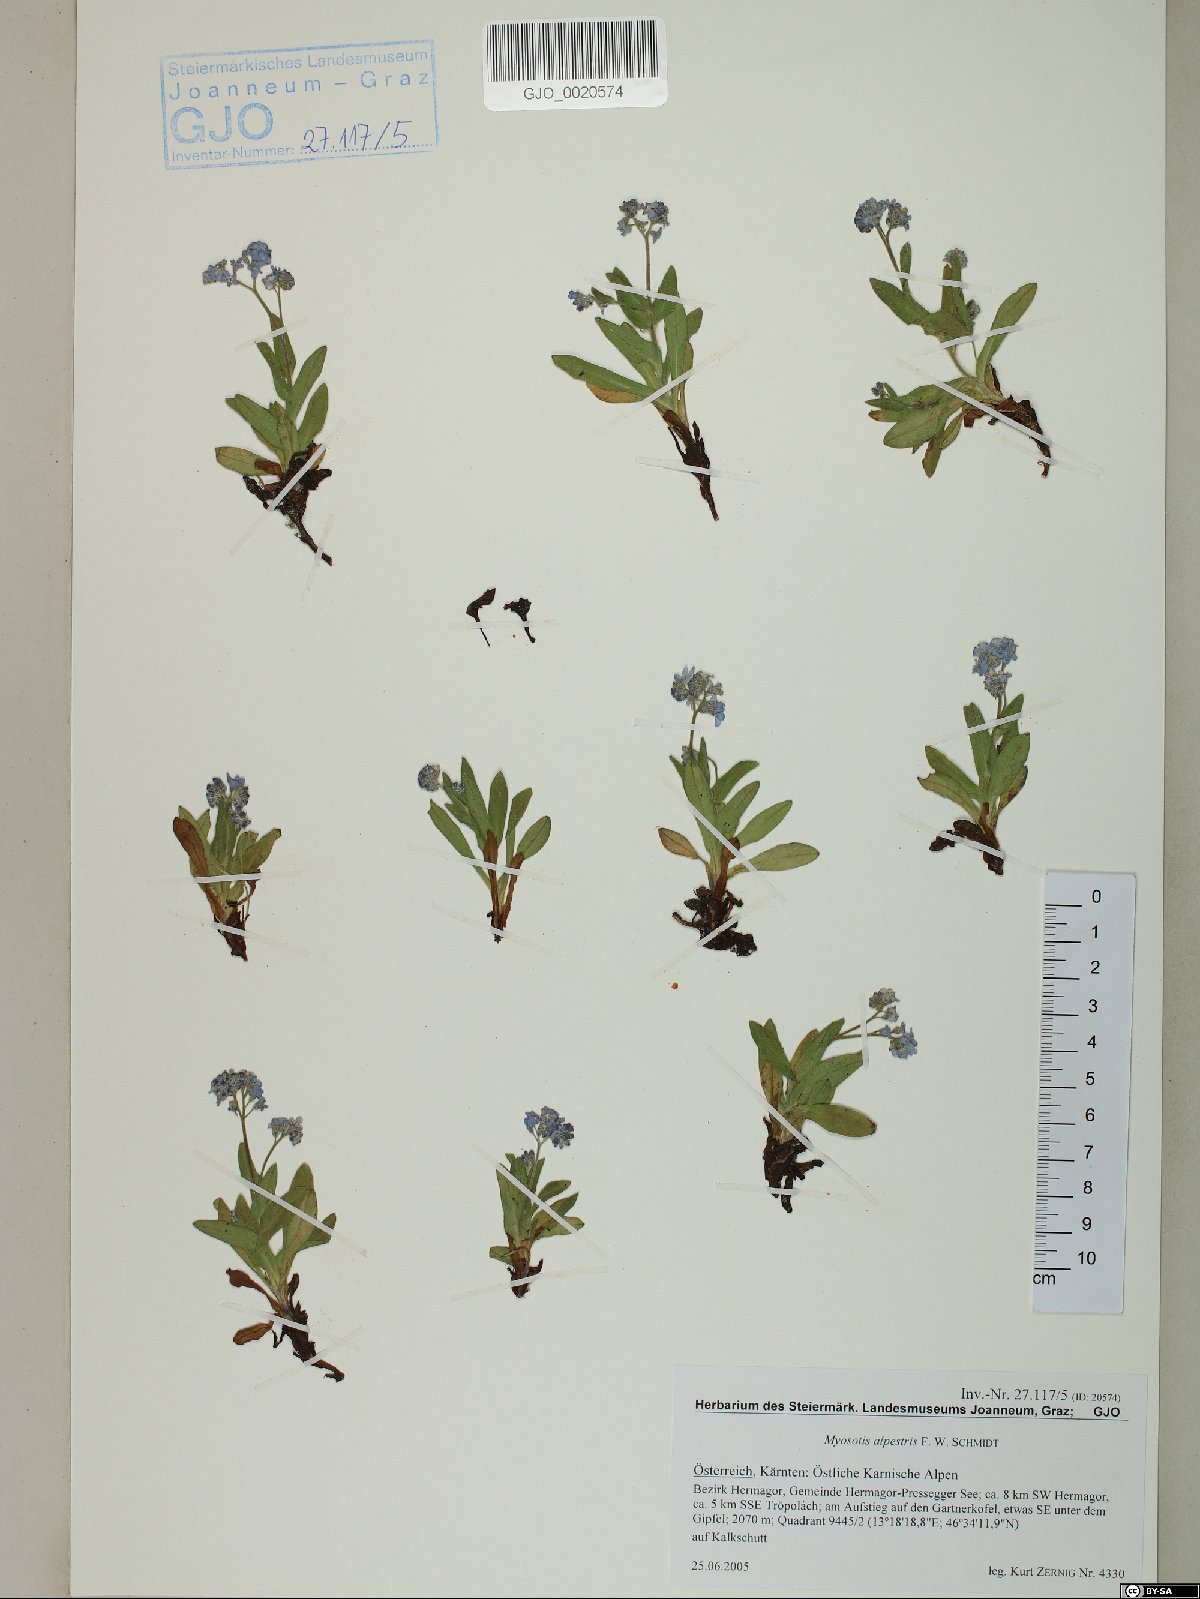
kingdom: Plantae
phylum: Tracheophyta
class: Magnoliopsida
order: Boraginales
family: Boraginaceae
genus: Myosotis
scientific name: Myosotis alpestris
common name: Alpine forget-me-not
